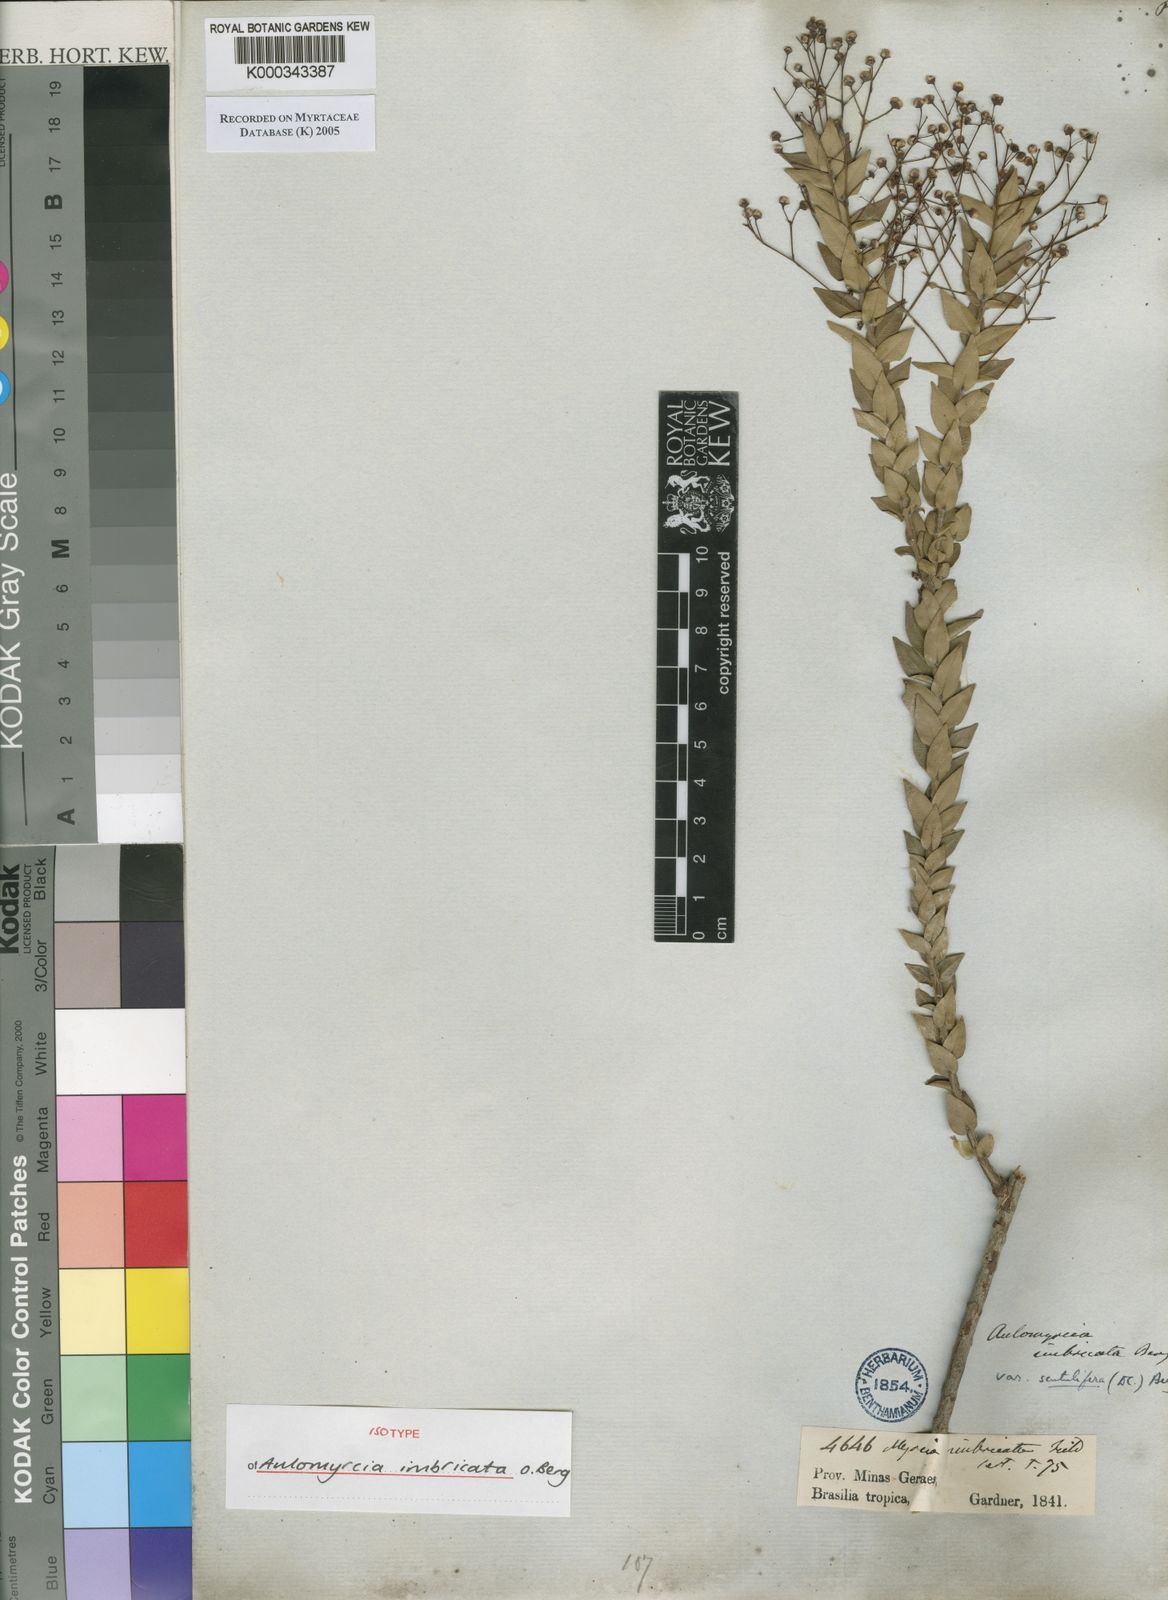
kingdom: Plantae
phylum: Tracheophyta
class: Magnoliopsida
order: Myrtales
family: Myrtaceae
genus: Myrcia
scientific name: Myrcia racemulosa
